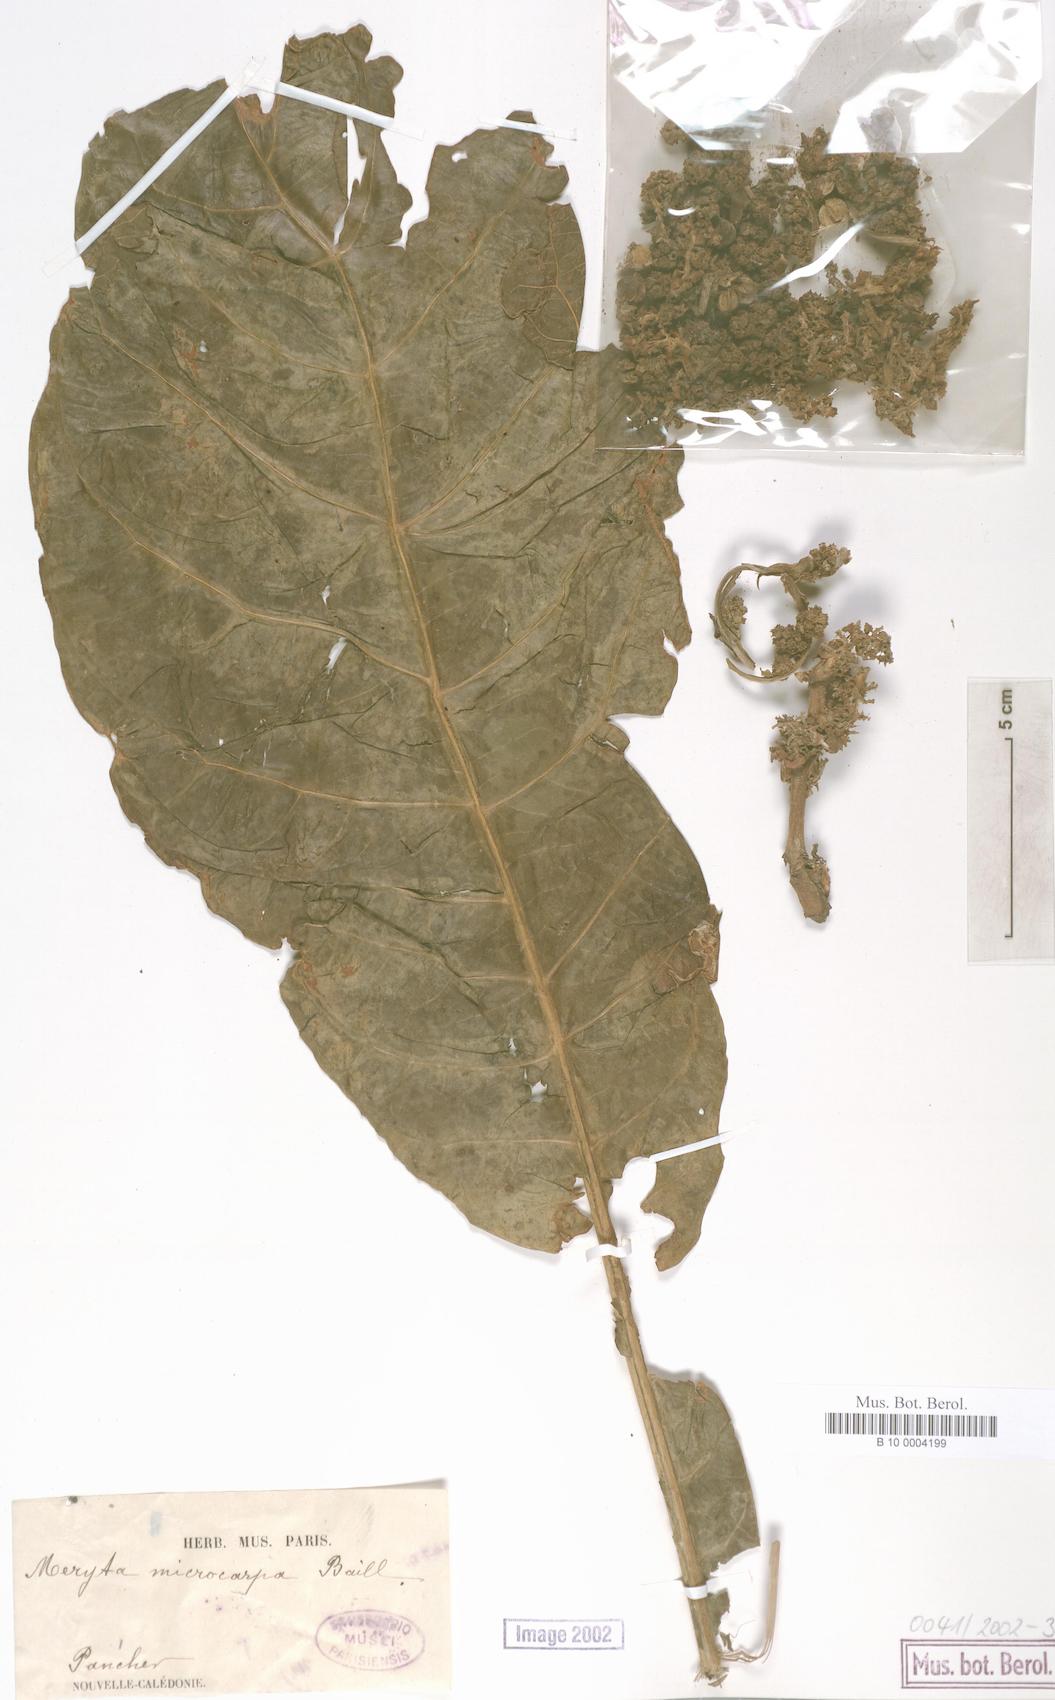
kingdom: Plantae
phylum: Tracheophyta
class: Magnoliopsida
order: Apiales
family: Araliaceae
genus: Meryta
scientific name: Meryta balansae
